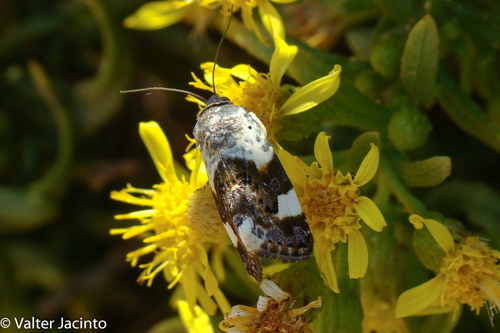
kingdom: Animalia
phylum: Arthropoda
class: Insecta
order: Lepidoptera
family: Noctuidae
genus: Acontia
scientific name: Acontia lucida
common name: Pale shoulder
